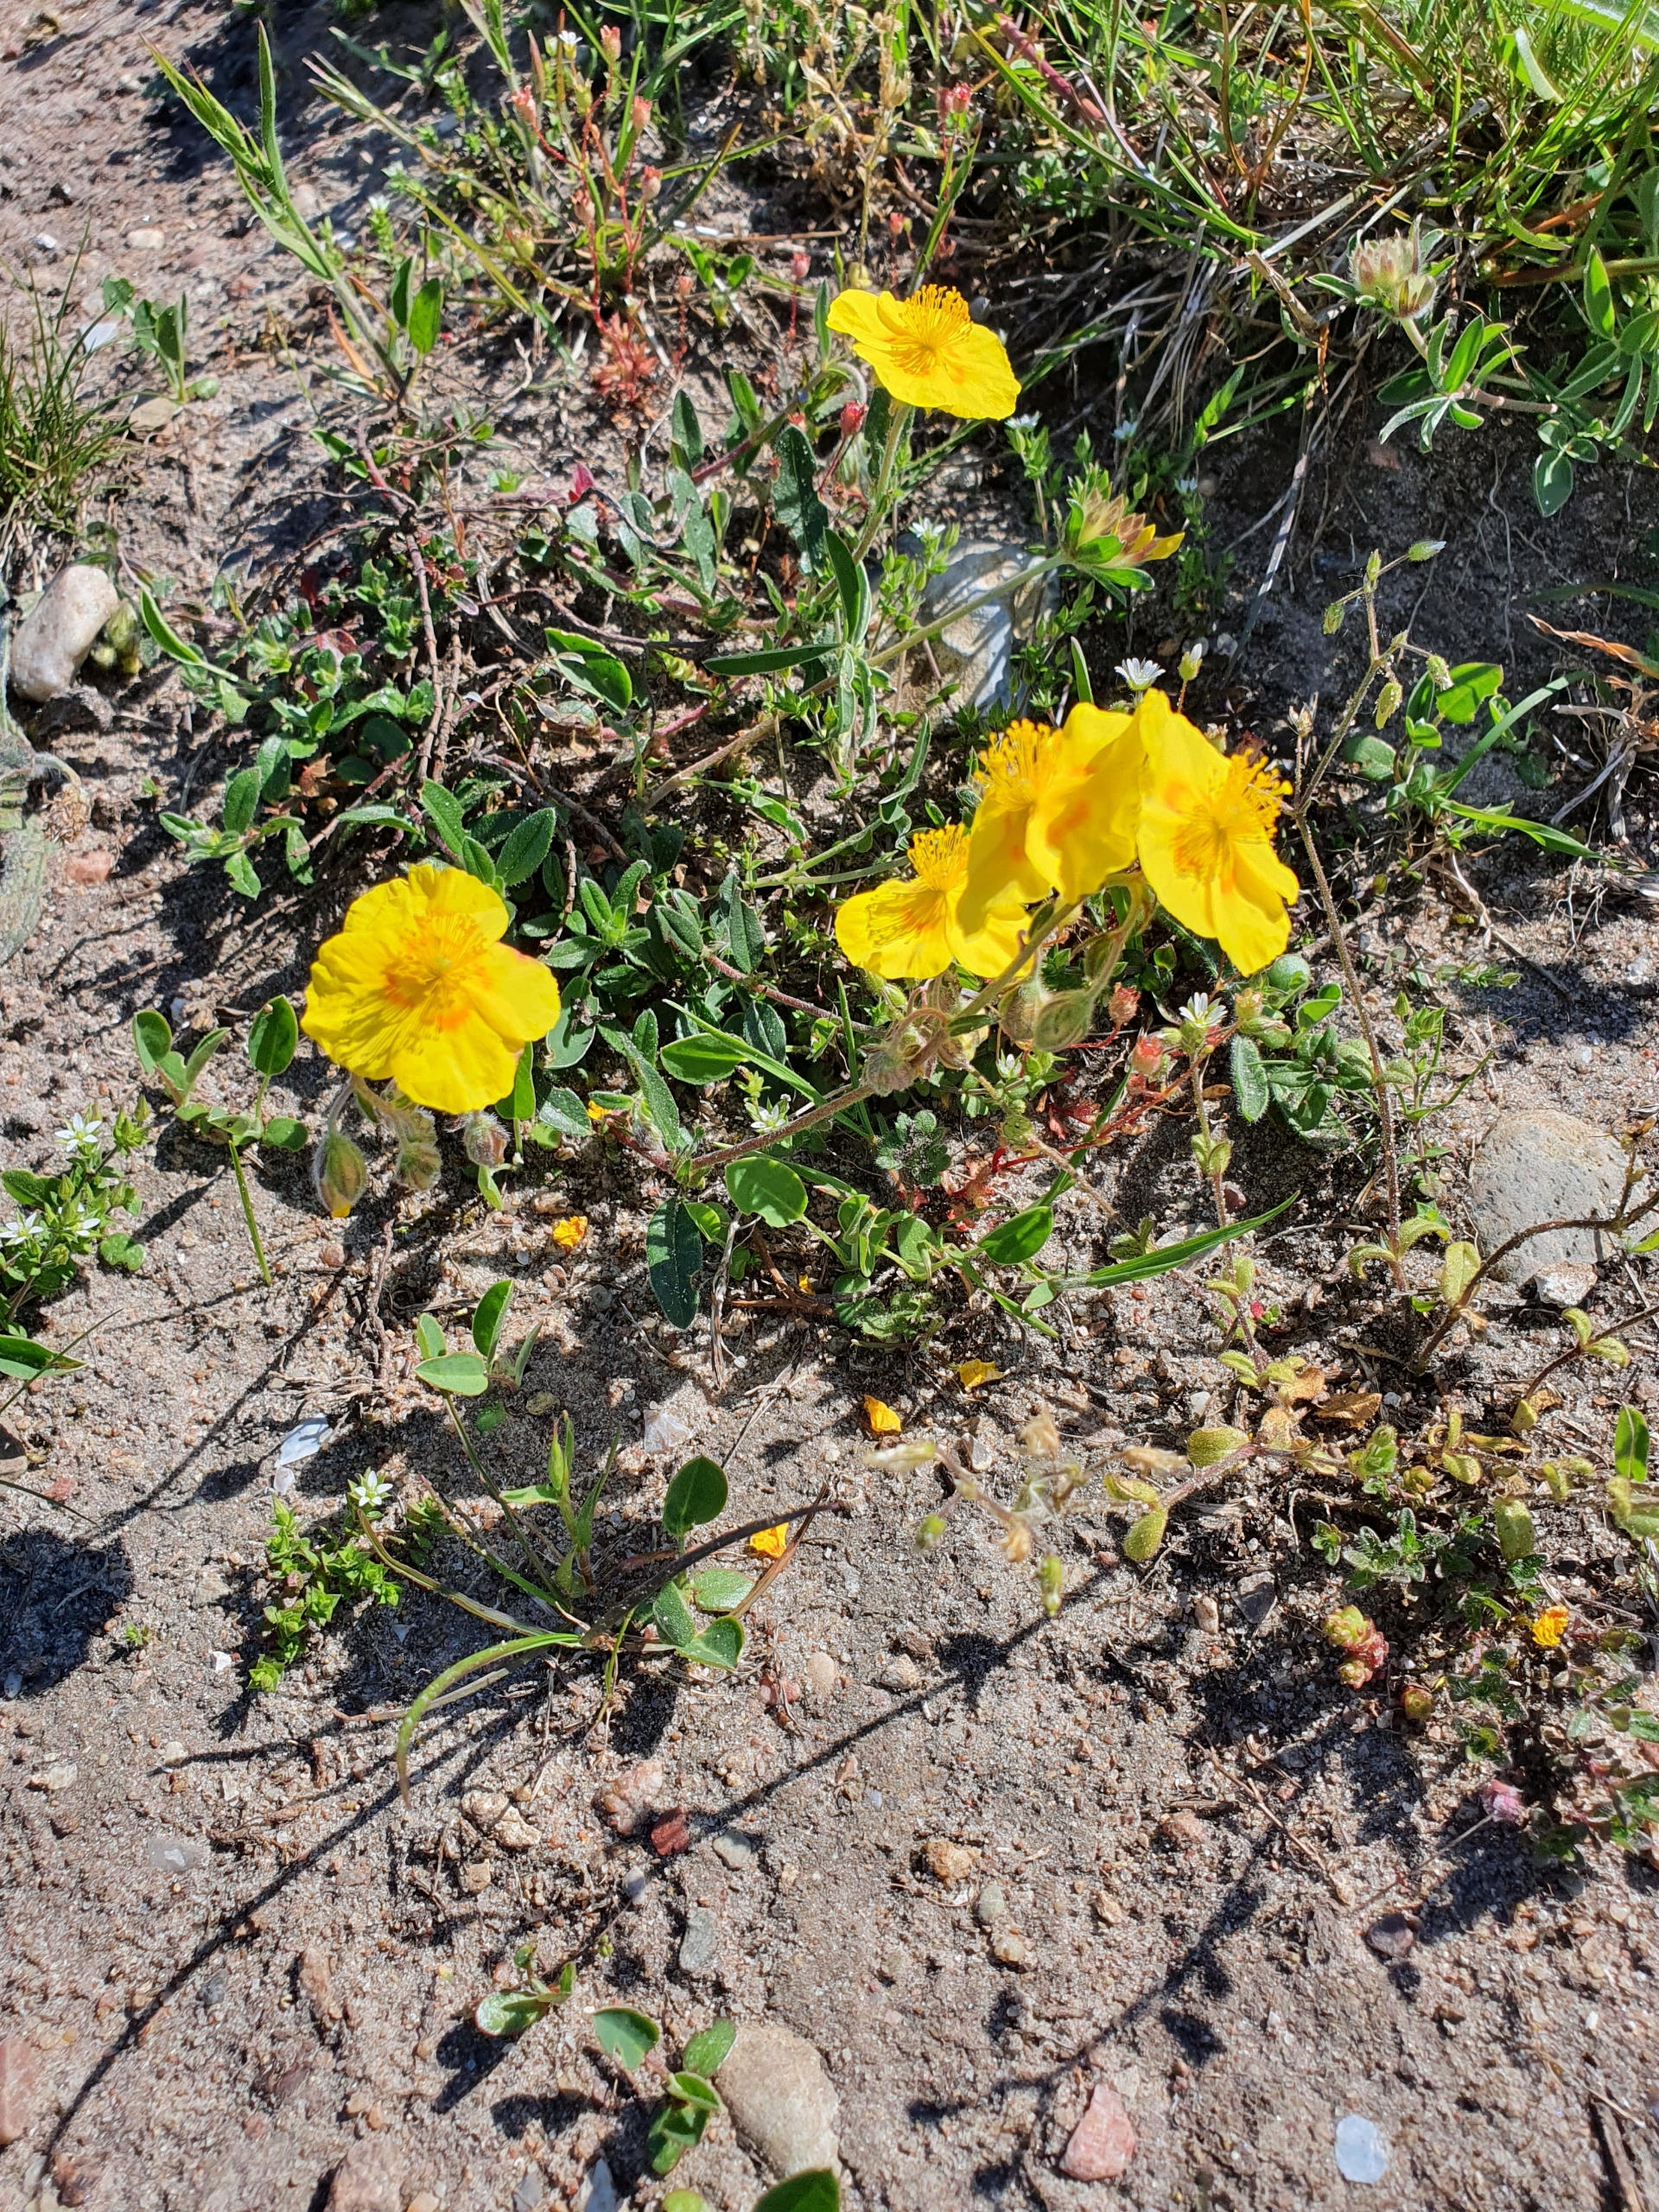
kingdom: Plantae
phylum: Tracheophyta
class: Magnoliopsida
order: Malvales
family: Cistaceae
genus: Helianthemum
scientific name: Helianthemum nummularium
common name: Soløje
